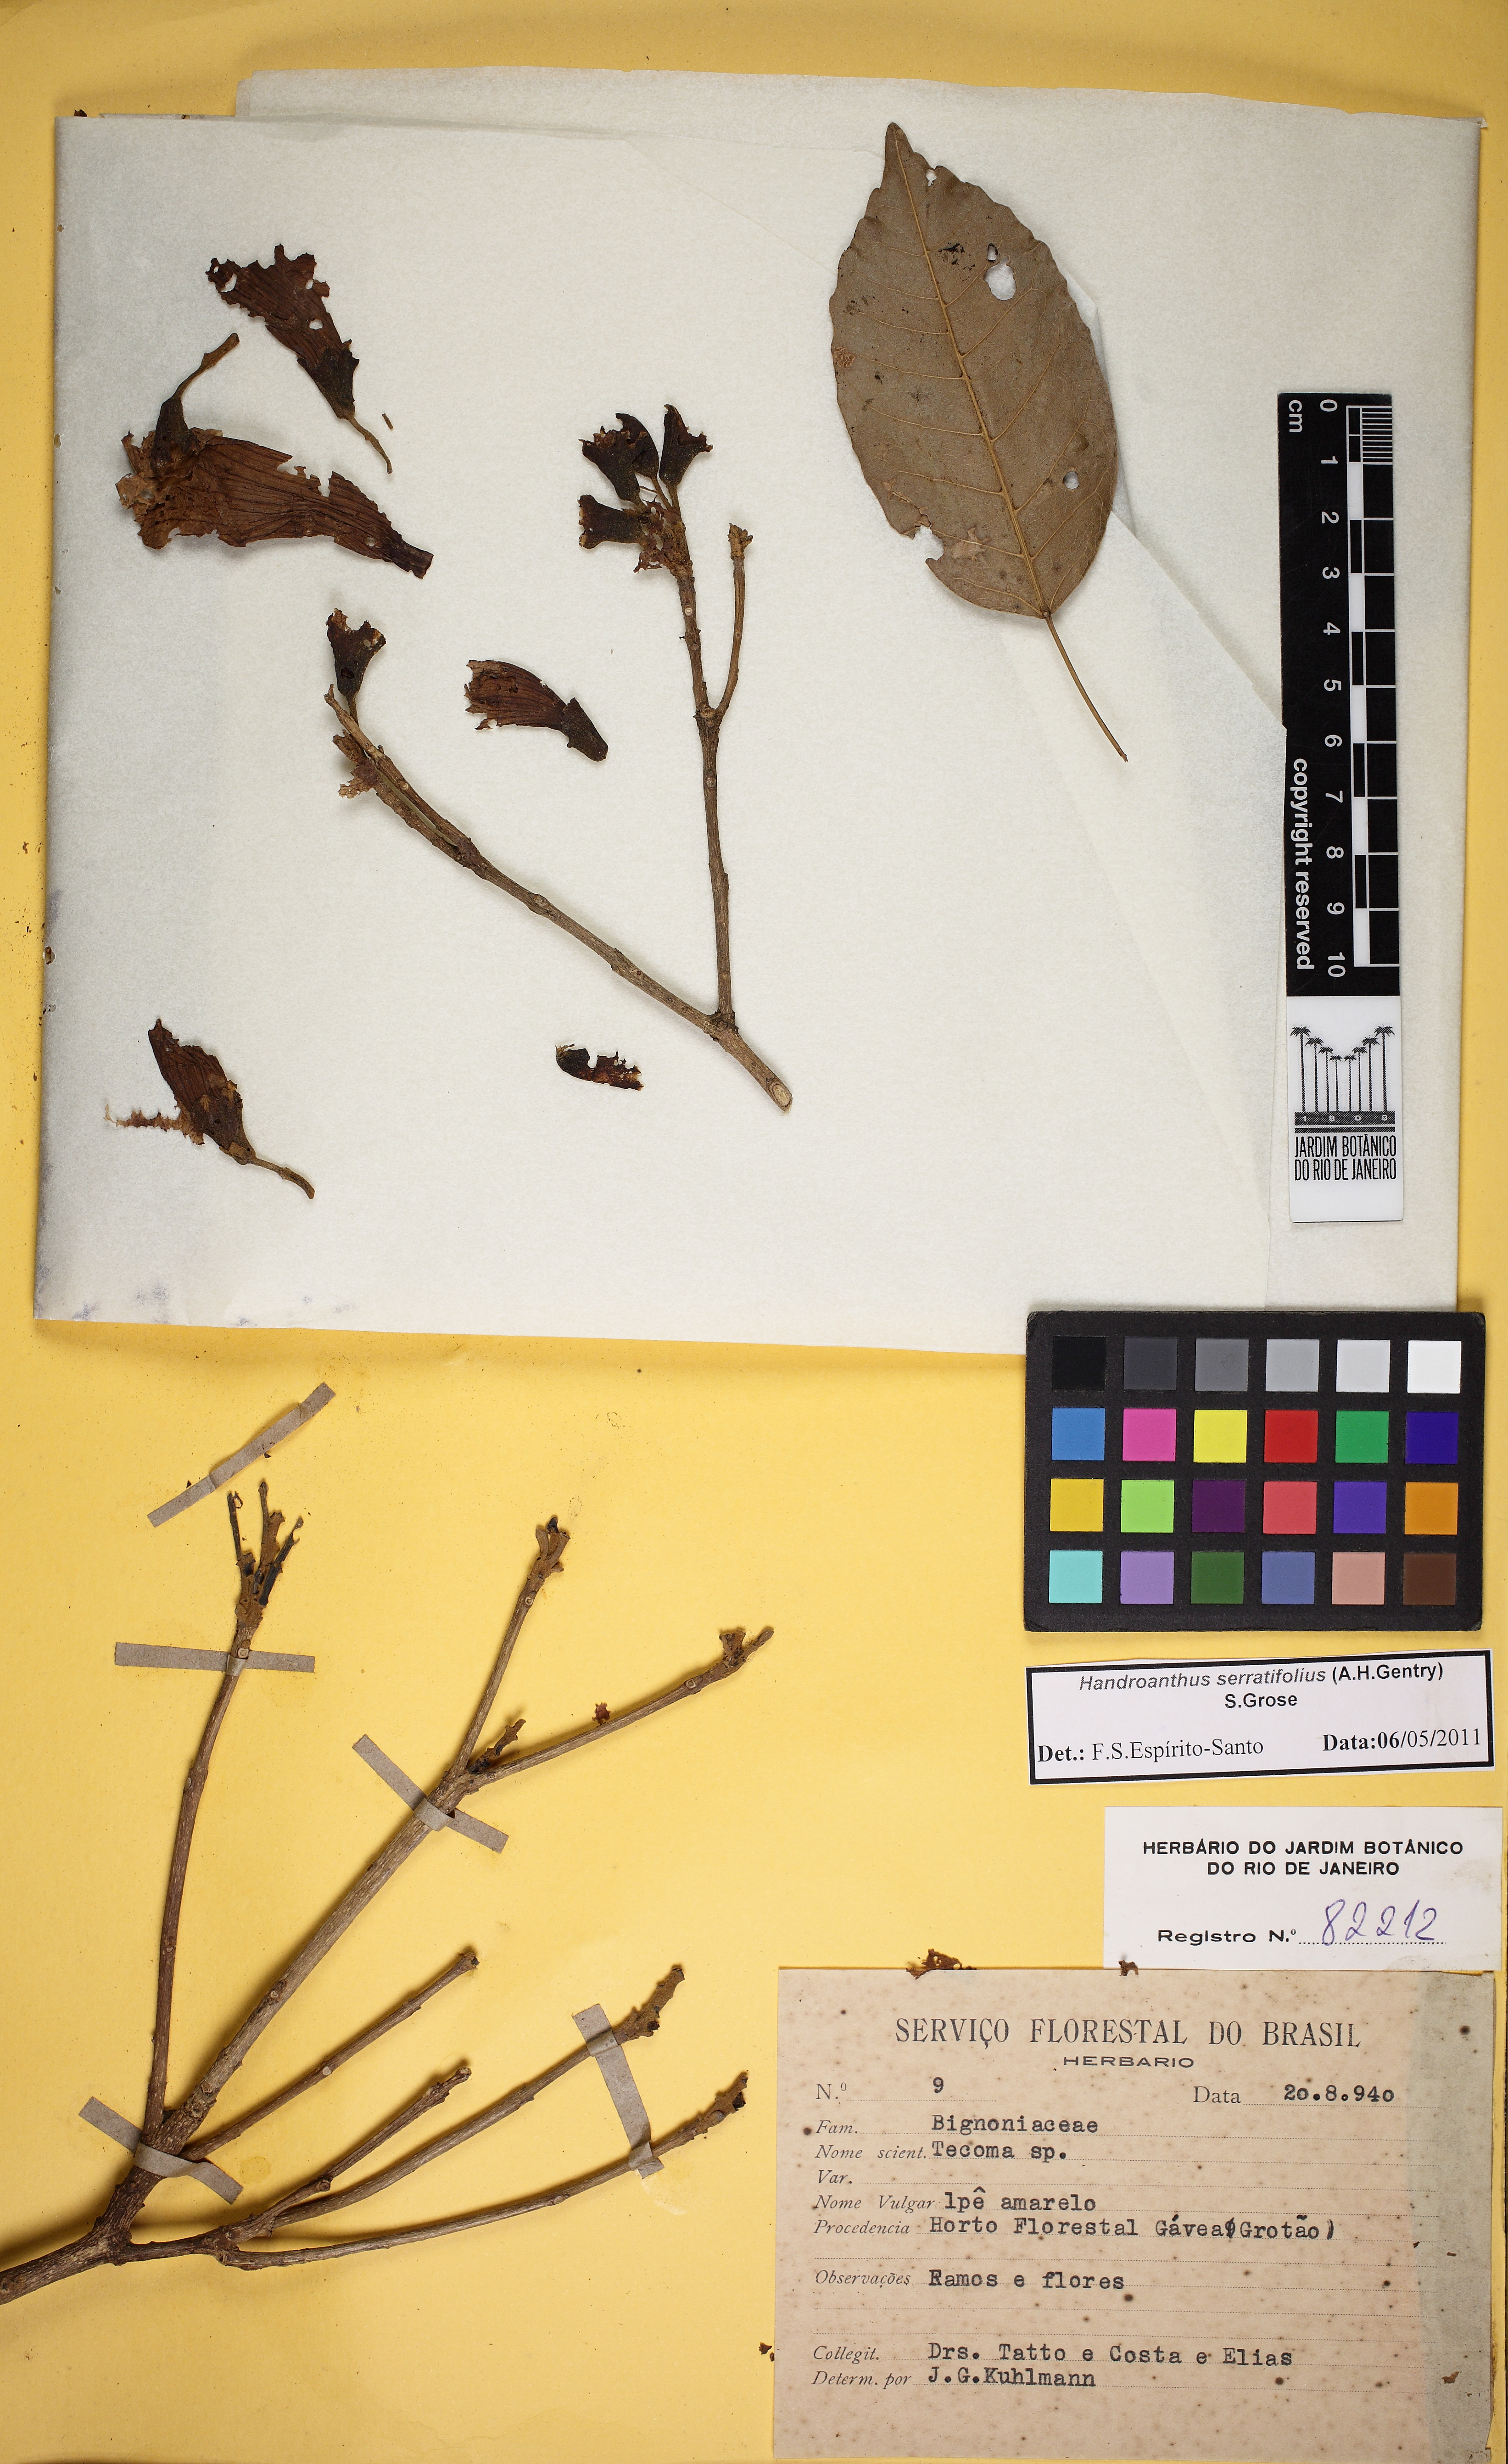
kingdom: Plantae
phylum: Tracheophyta
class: Magnoliopsida
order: Lamiales
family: Bignoniaceae
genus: Handroanthus
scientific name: Handroanthus serratifolius
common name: Yellow ipe
